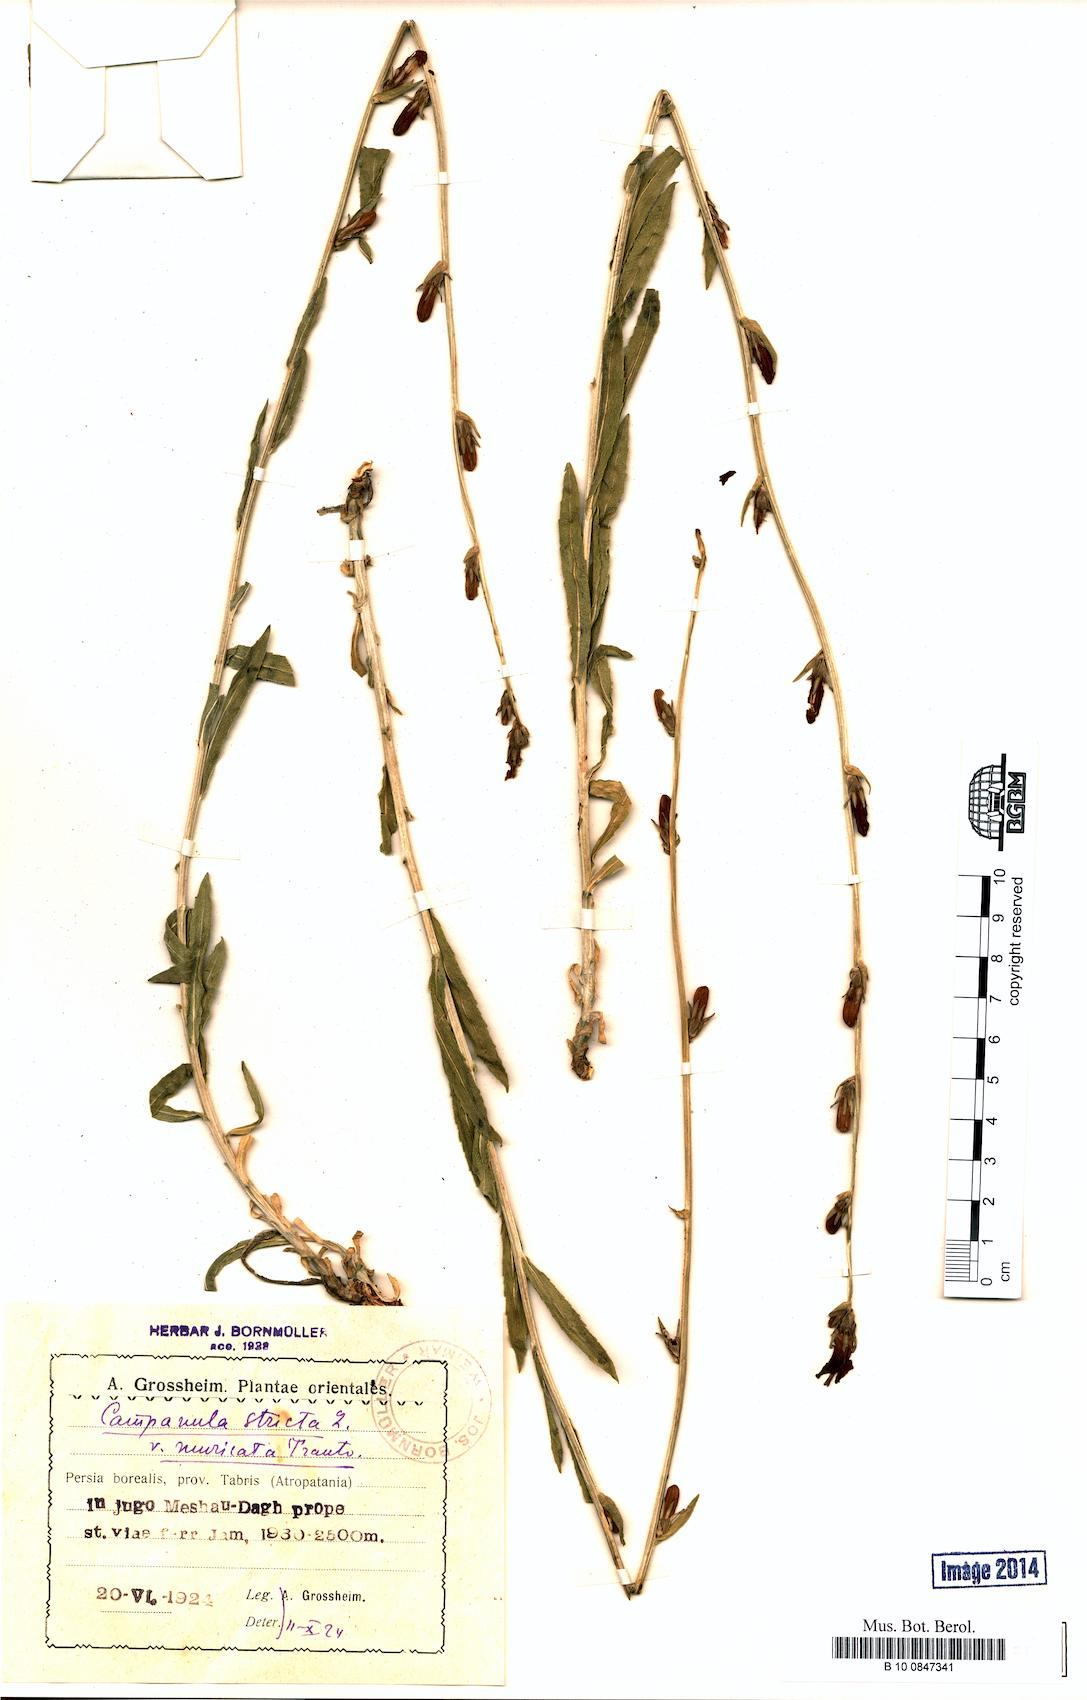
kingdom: Plantae
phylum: Tracheophyta
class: Magnoliopsida
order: Asterales
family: Campanulaceae
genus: Campanula
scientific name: Campanula stricta
